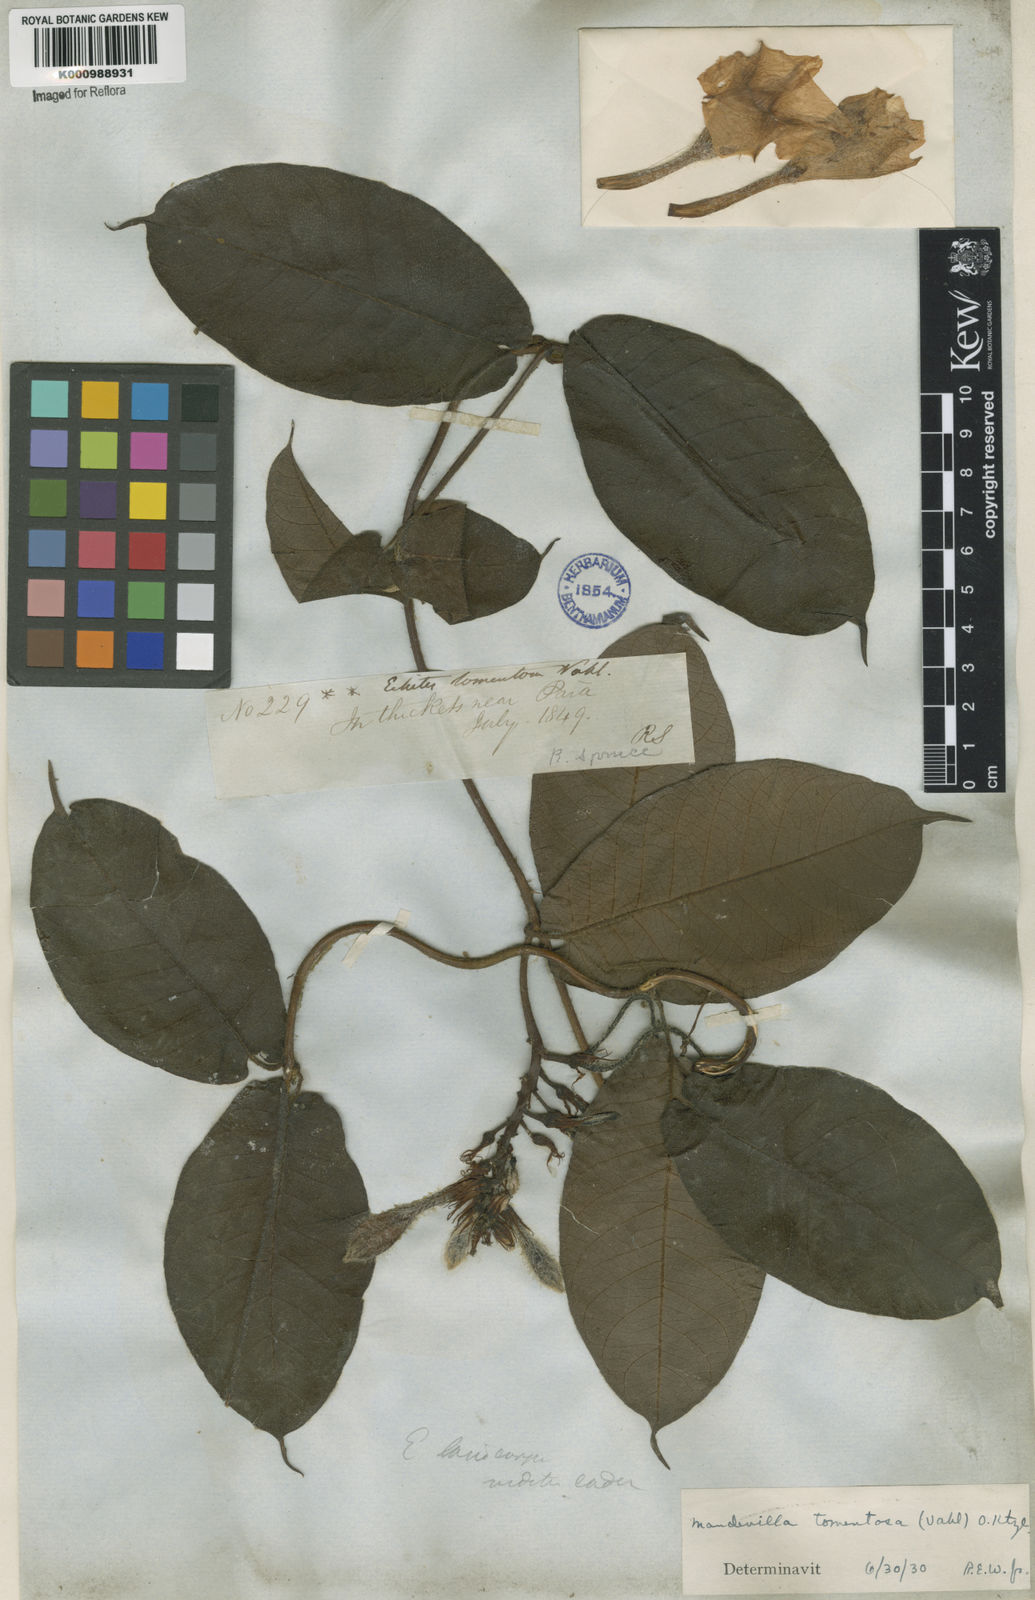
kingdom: Plantae
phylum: Tracheophyta
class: Magnoliopsida
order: Gentianales
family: Apocynaceae
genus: Mandevilla
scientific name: Mandevilla hirsuta
